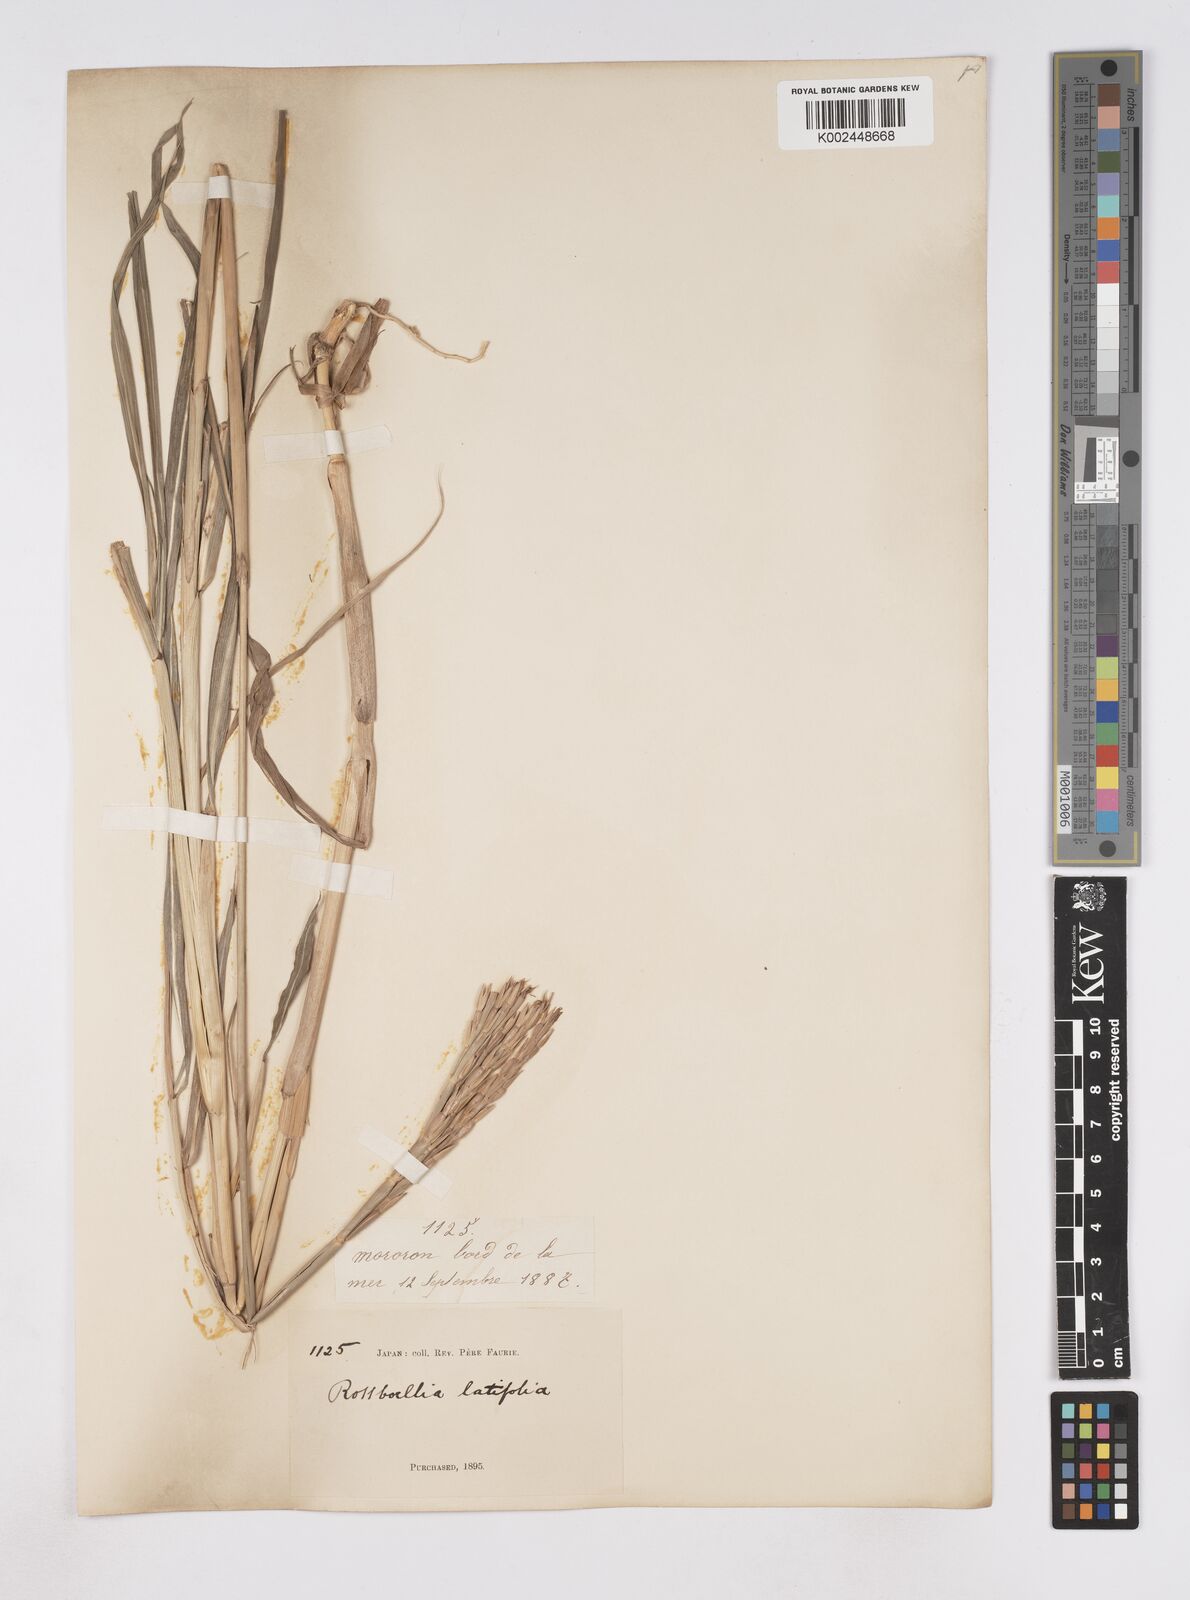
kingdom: Plantae
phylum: Tracheophyta
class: Liliopsida
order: Poales
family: Poaceae
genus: Phacelurus
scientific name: Phacelurus latifolius
